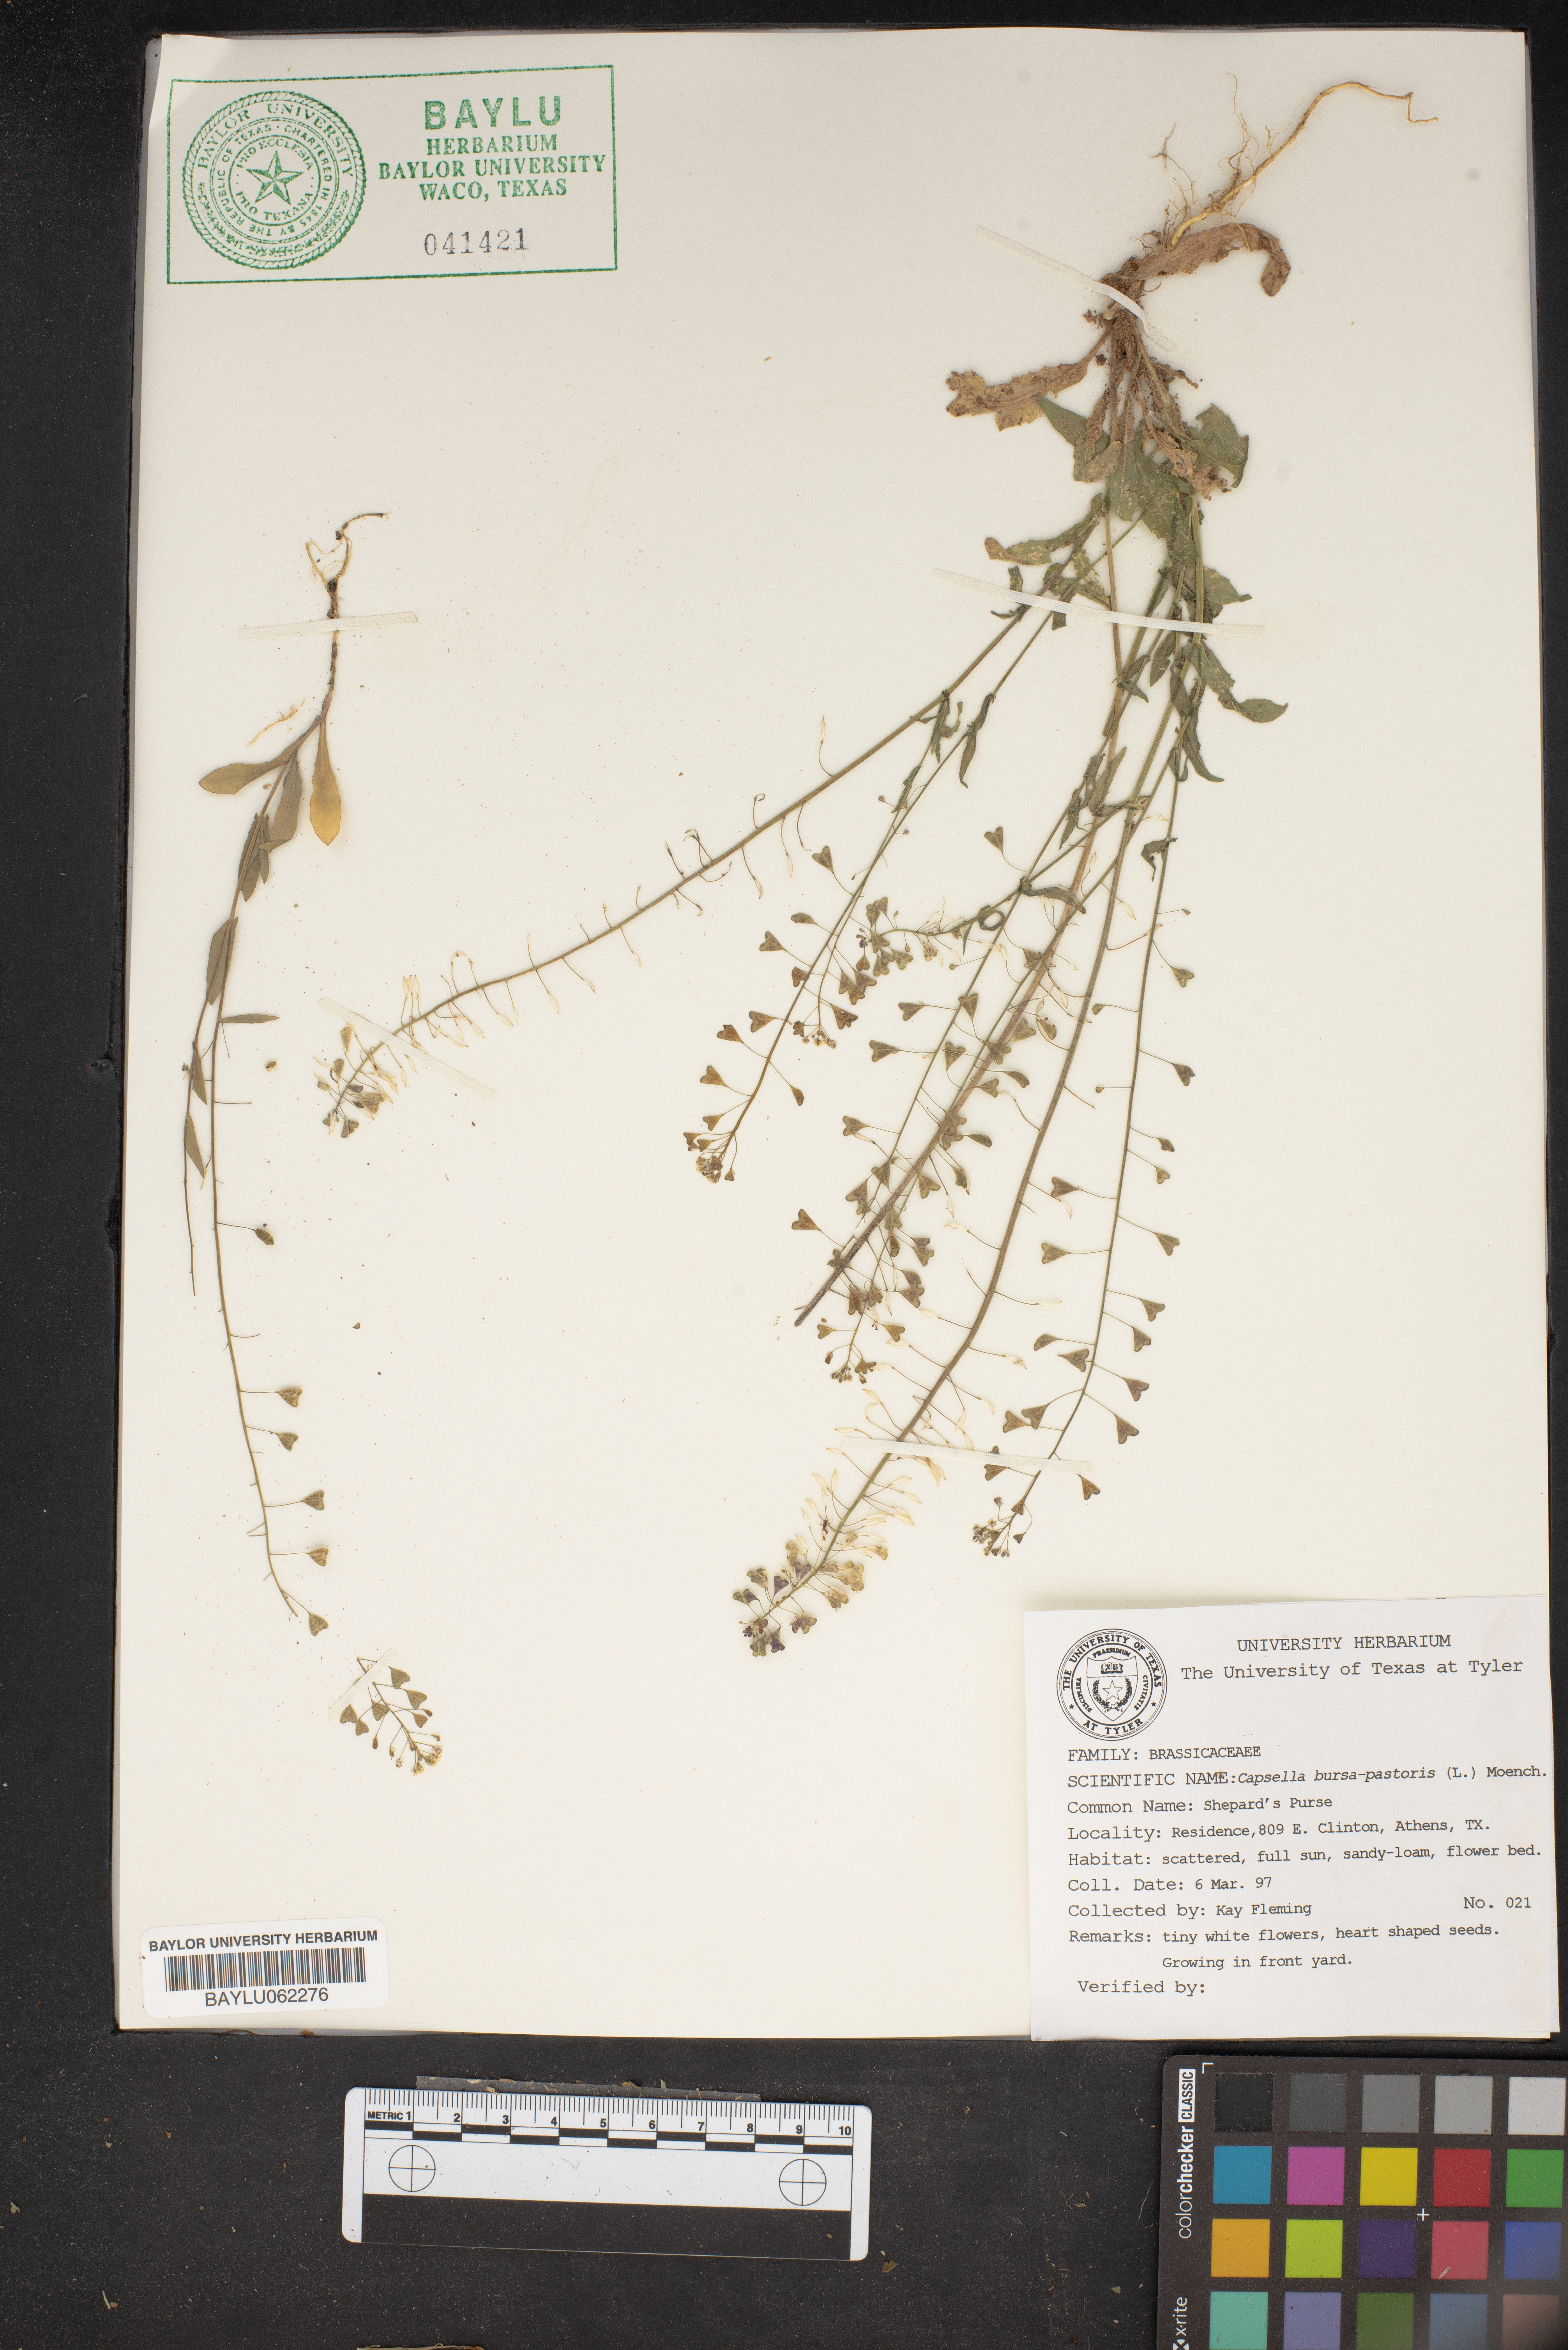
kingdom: Plantae
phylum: Tracheophyta
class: Magnoliopsida
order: Brassicales
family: Brassicaceae
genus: Capsella
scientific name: Capsella bursa-pastoris
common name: Shepherd's purse
